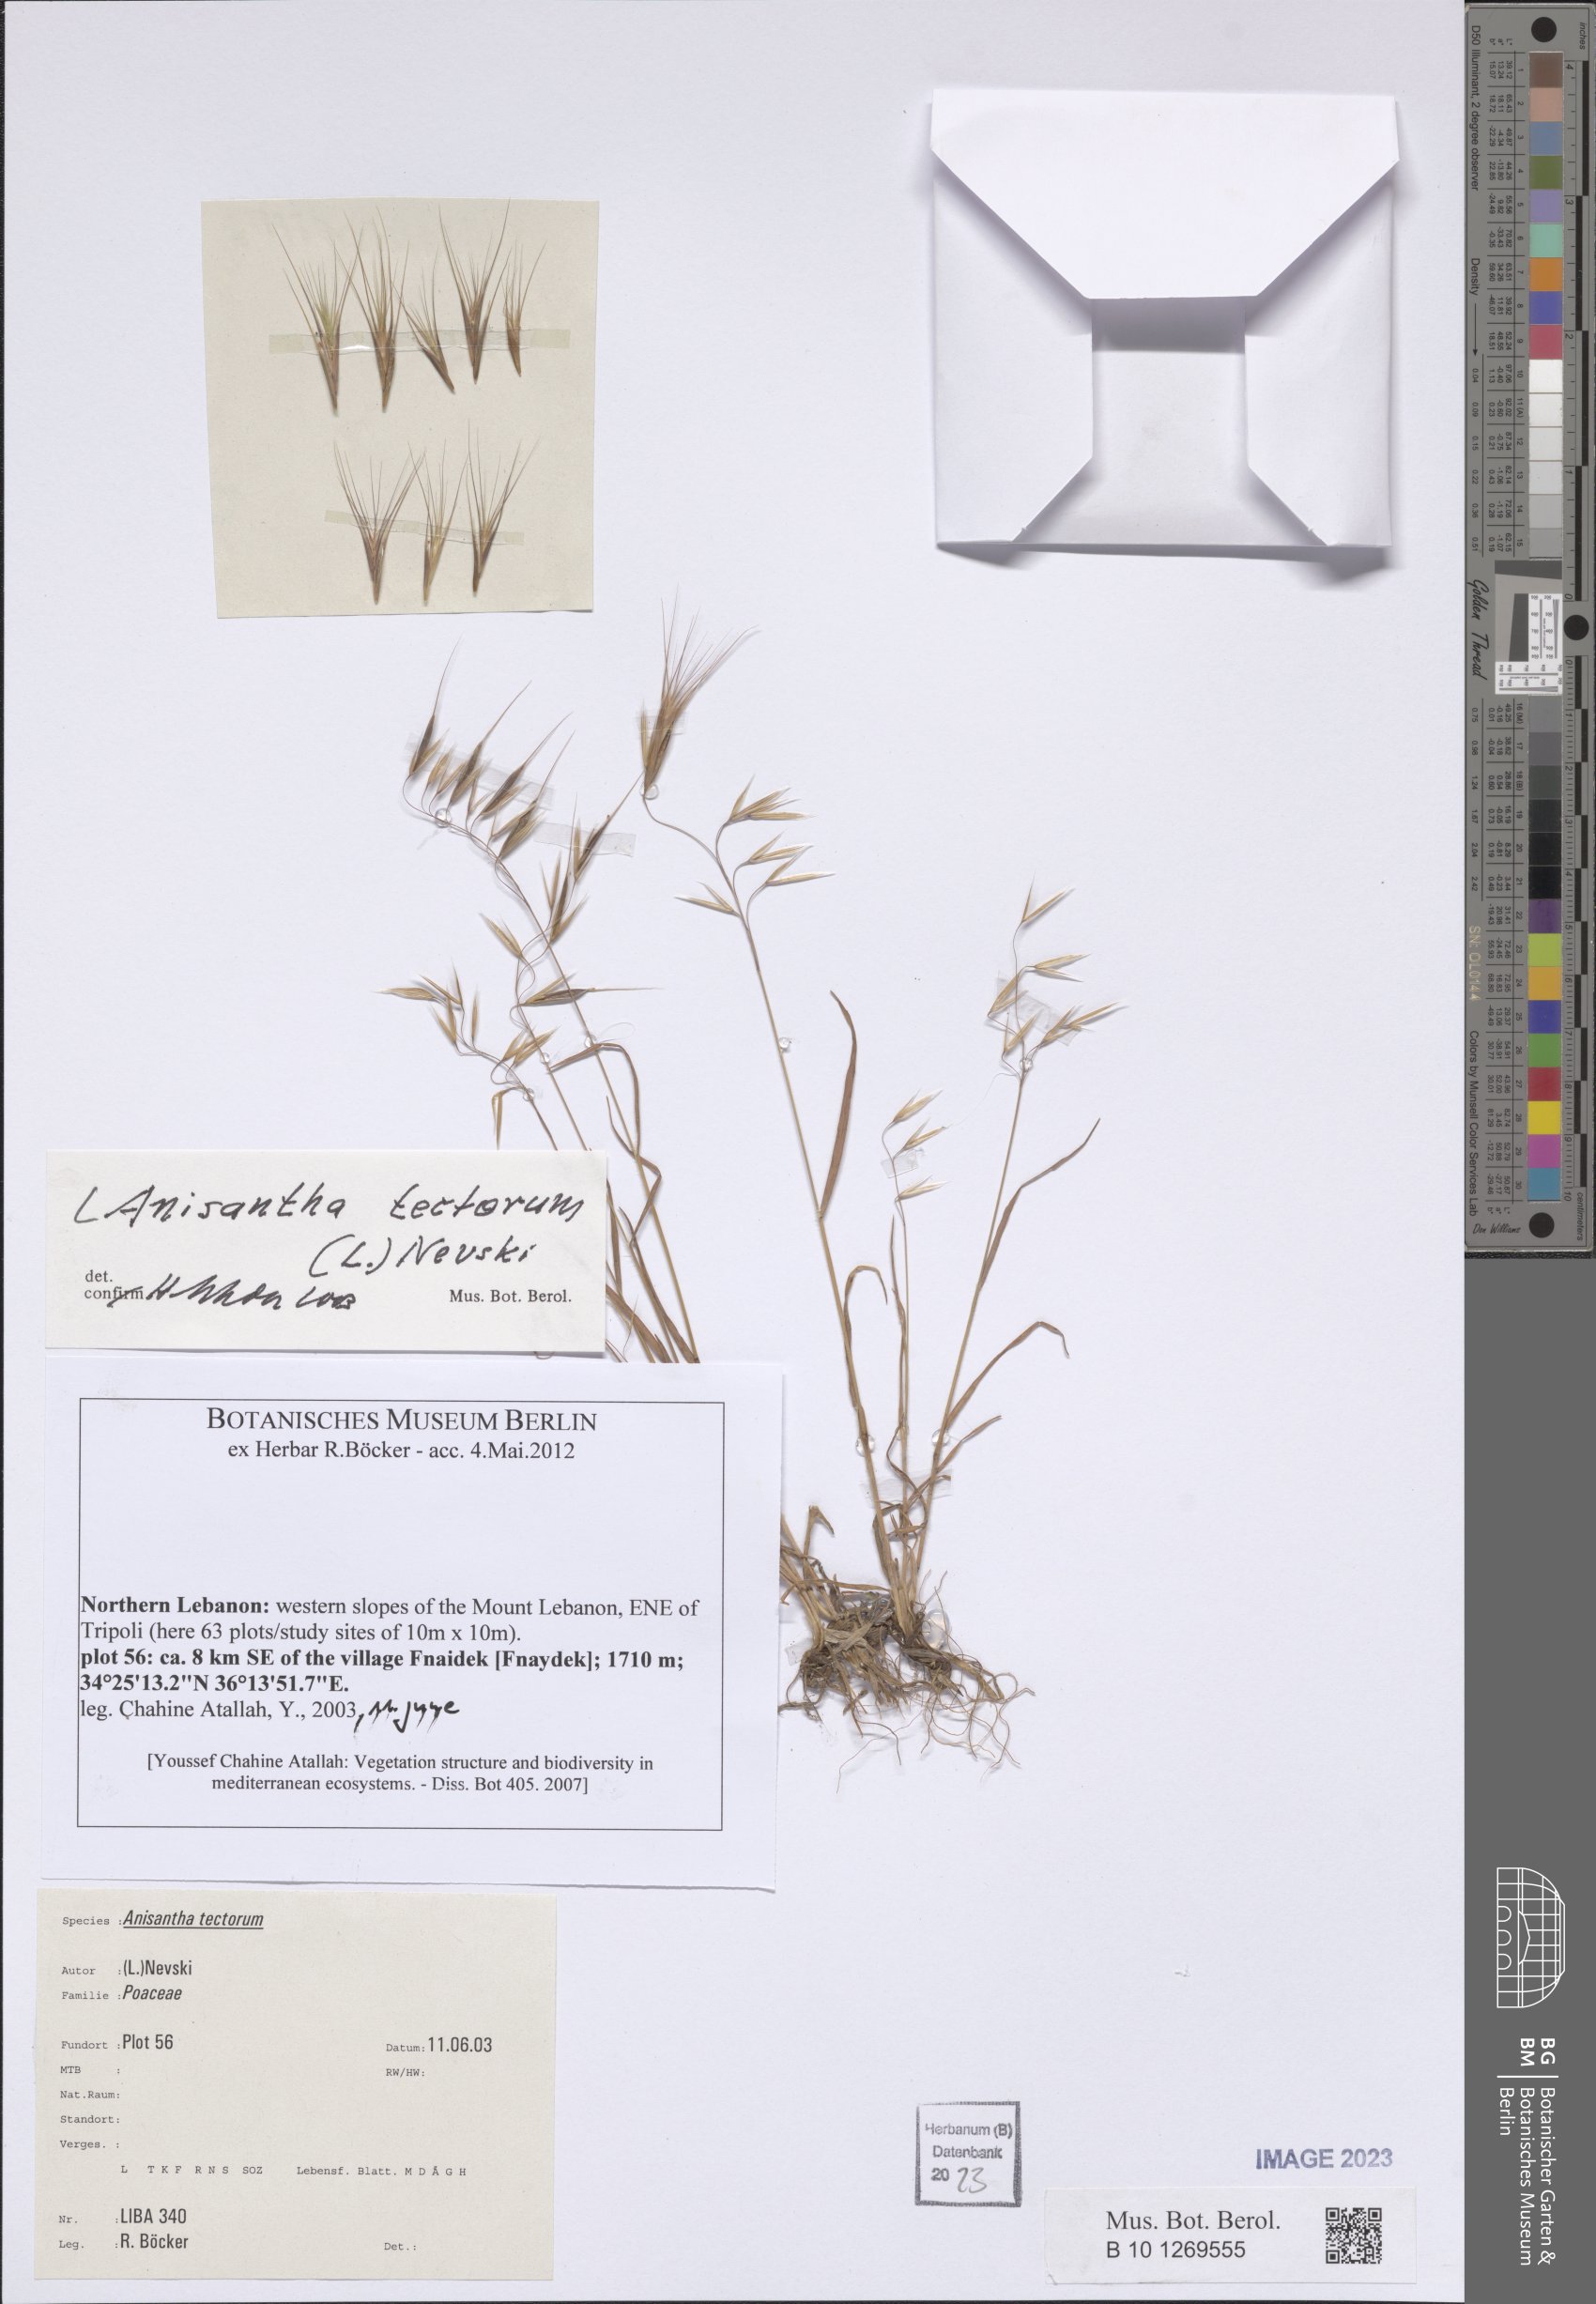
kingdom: Plantae
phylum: Tracheophyta
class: Liliopsida
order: Poales
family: Poaceae
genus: Bromus
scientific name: Bromus tectorum
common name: Cheatgrass
